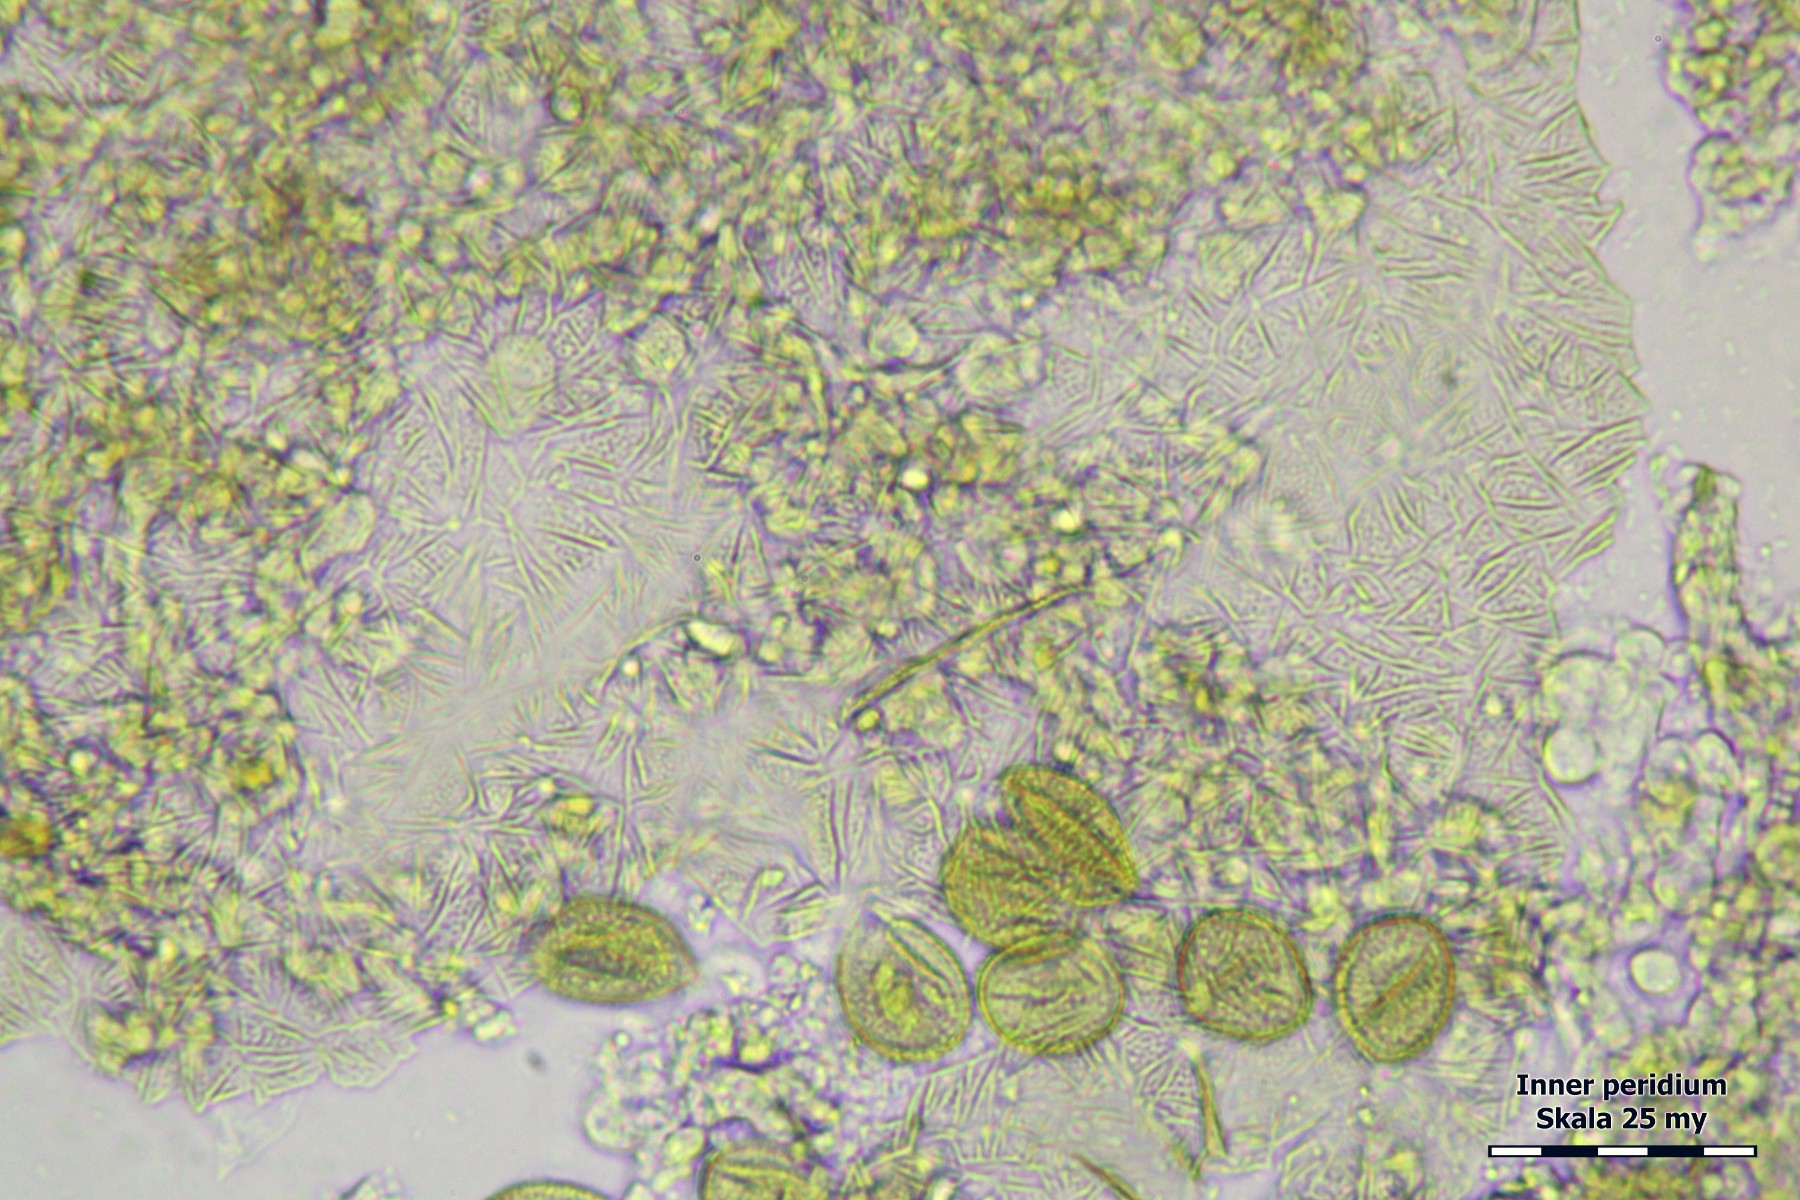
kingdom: Protozoa
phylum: Mycetozoa
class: Myxomycetes
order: Trichiales
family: Trichiaceae
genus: Trichia
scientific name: Trichia contorta
